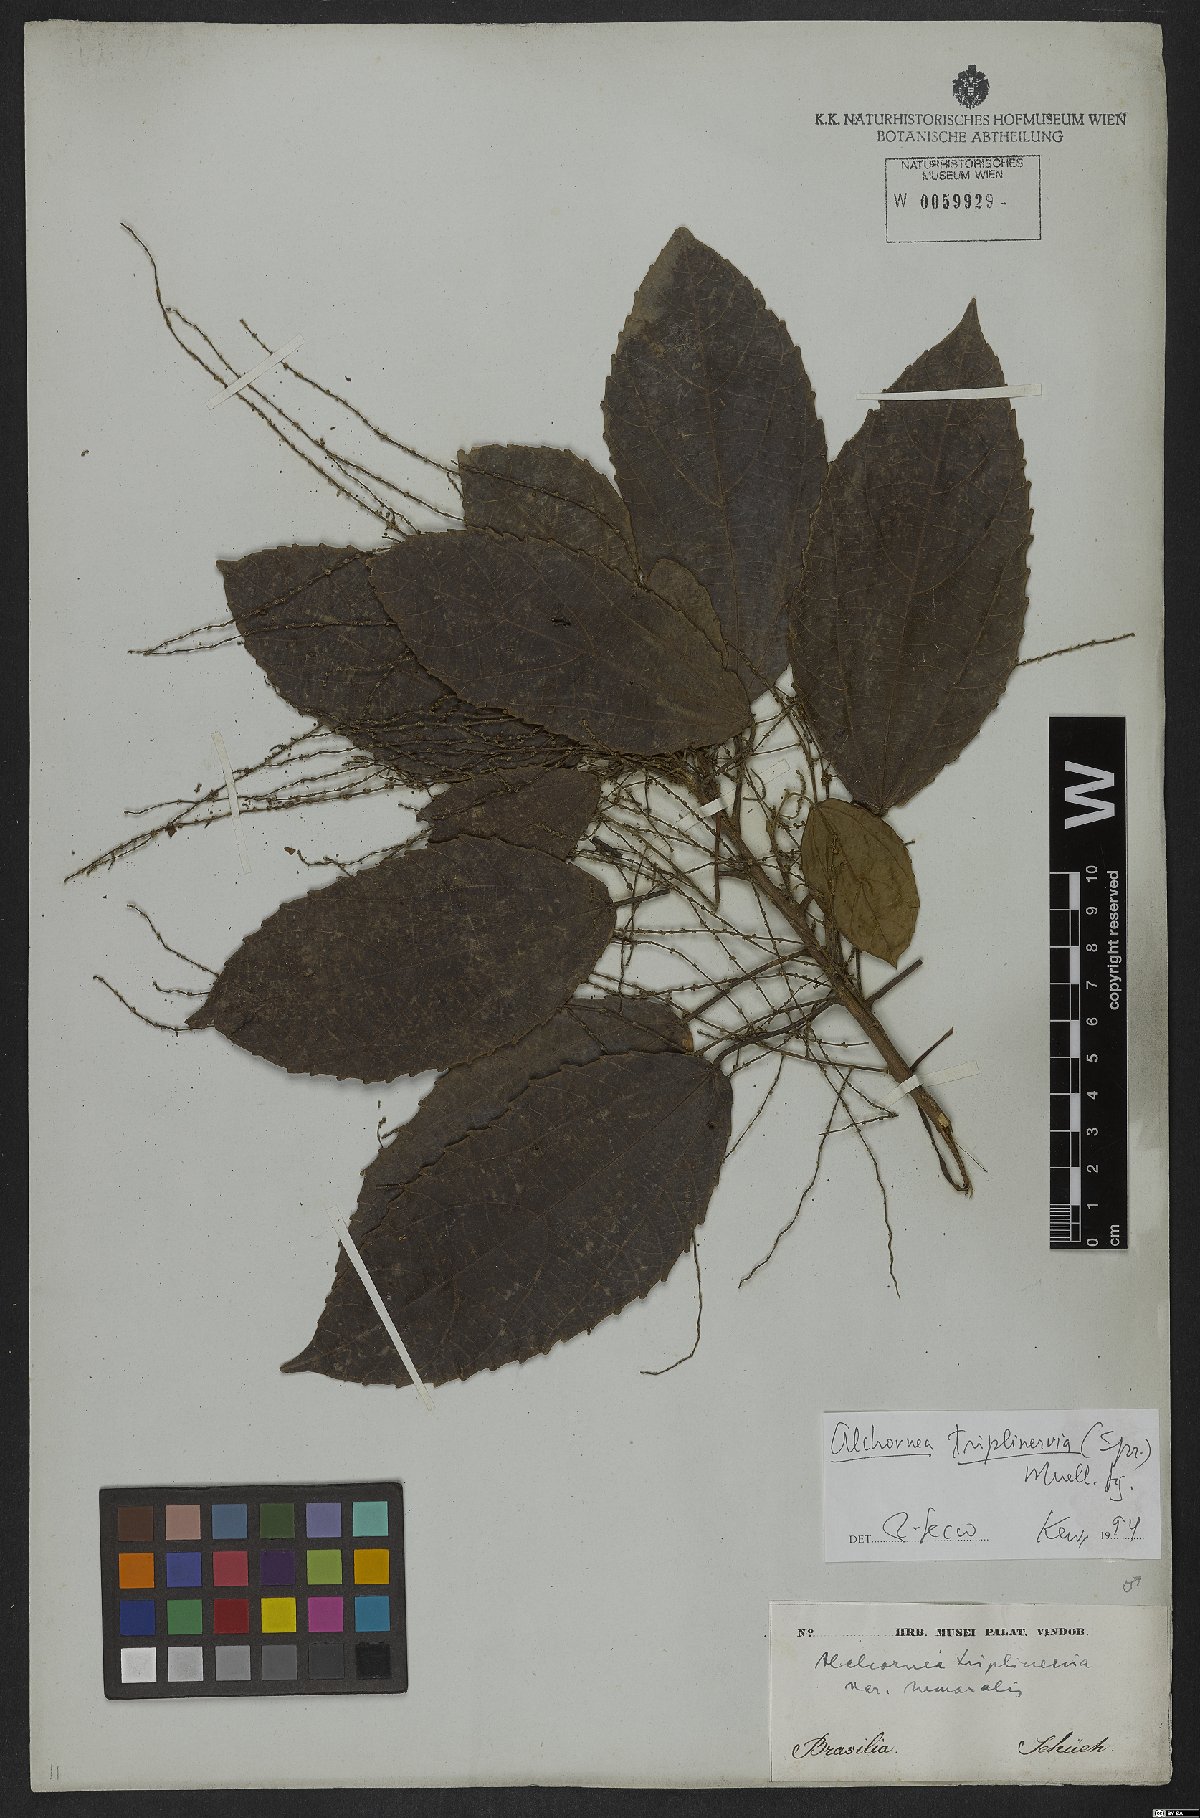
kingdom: Plantae
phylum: Tracheophyta
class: Magnoliopsida
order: Malpighiales
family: Euphorbiaceae
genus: Alchornea
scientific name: Alchornea triplinervia
